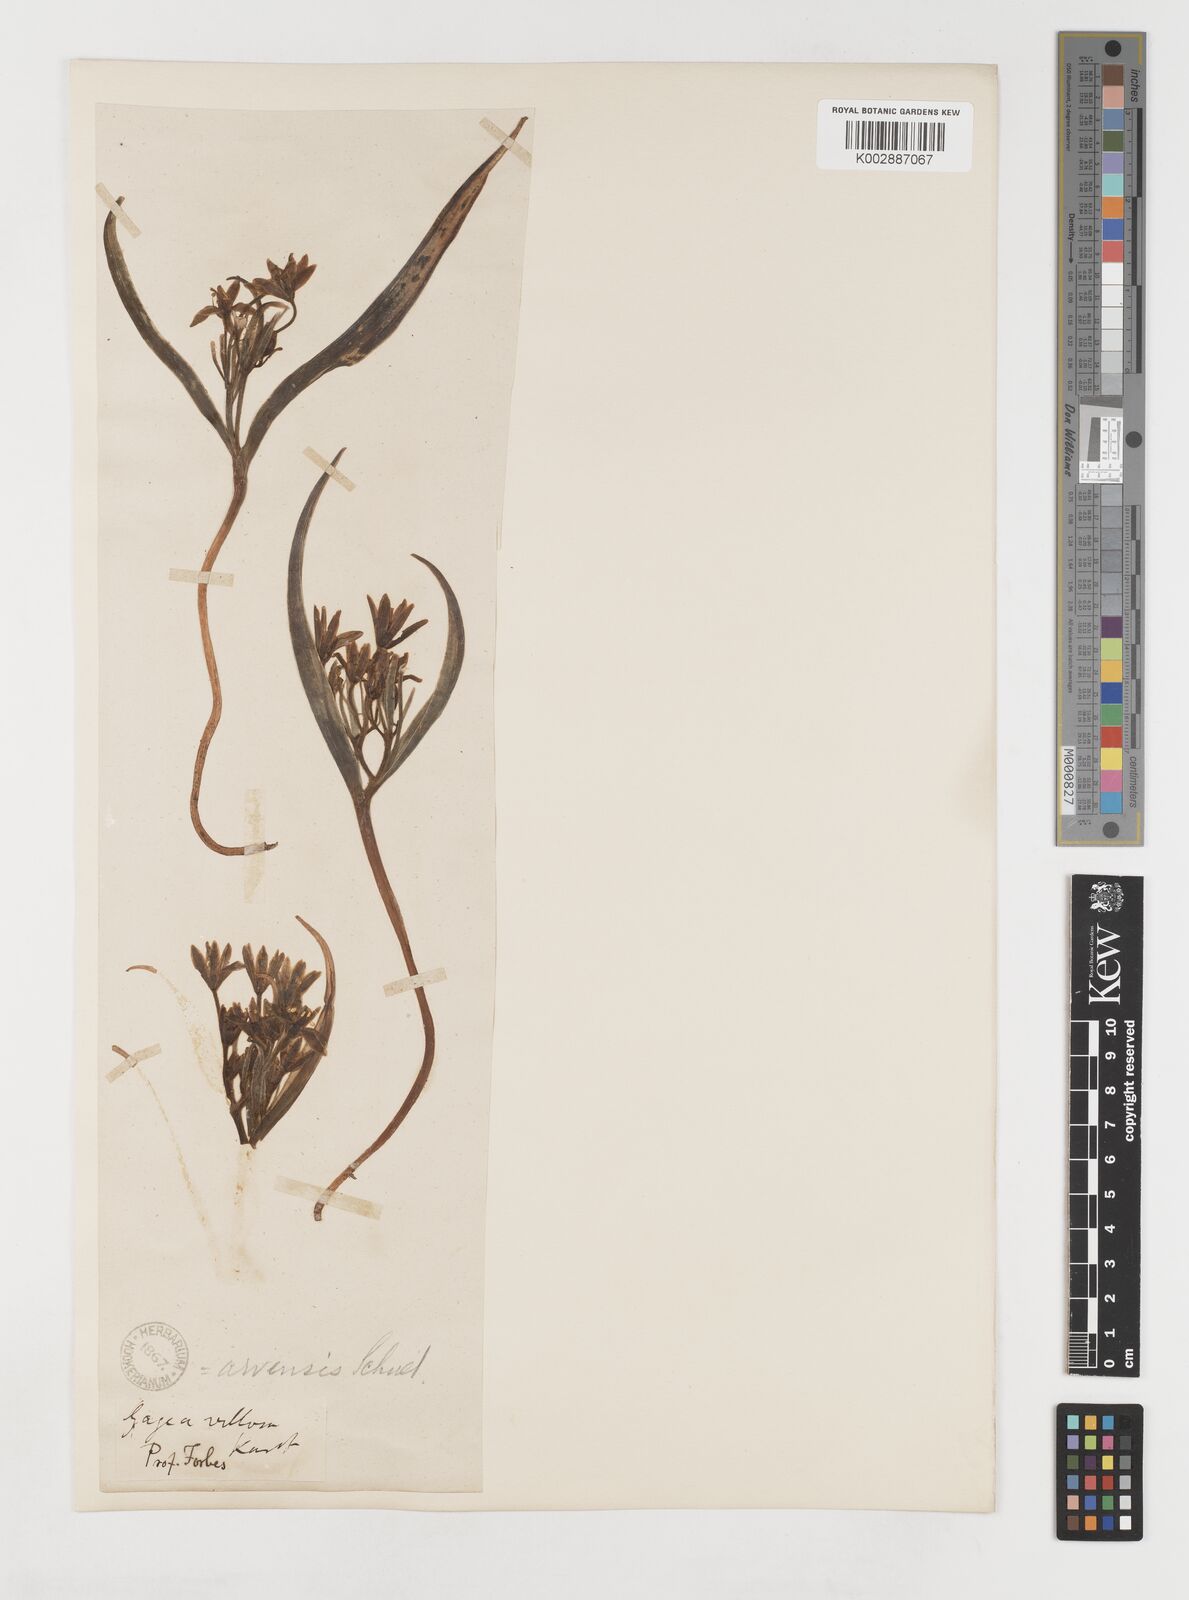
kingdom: Plantae
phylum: Tracheophyta
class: Liliopsida
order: Liliales
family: Liliaceae
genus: Gagea
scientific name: Gagea minima
